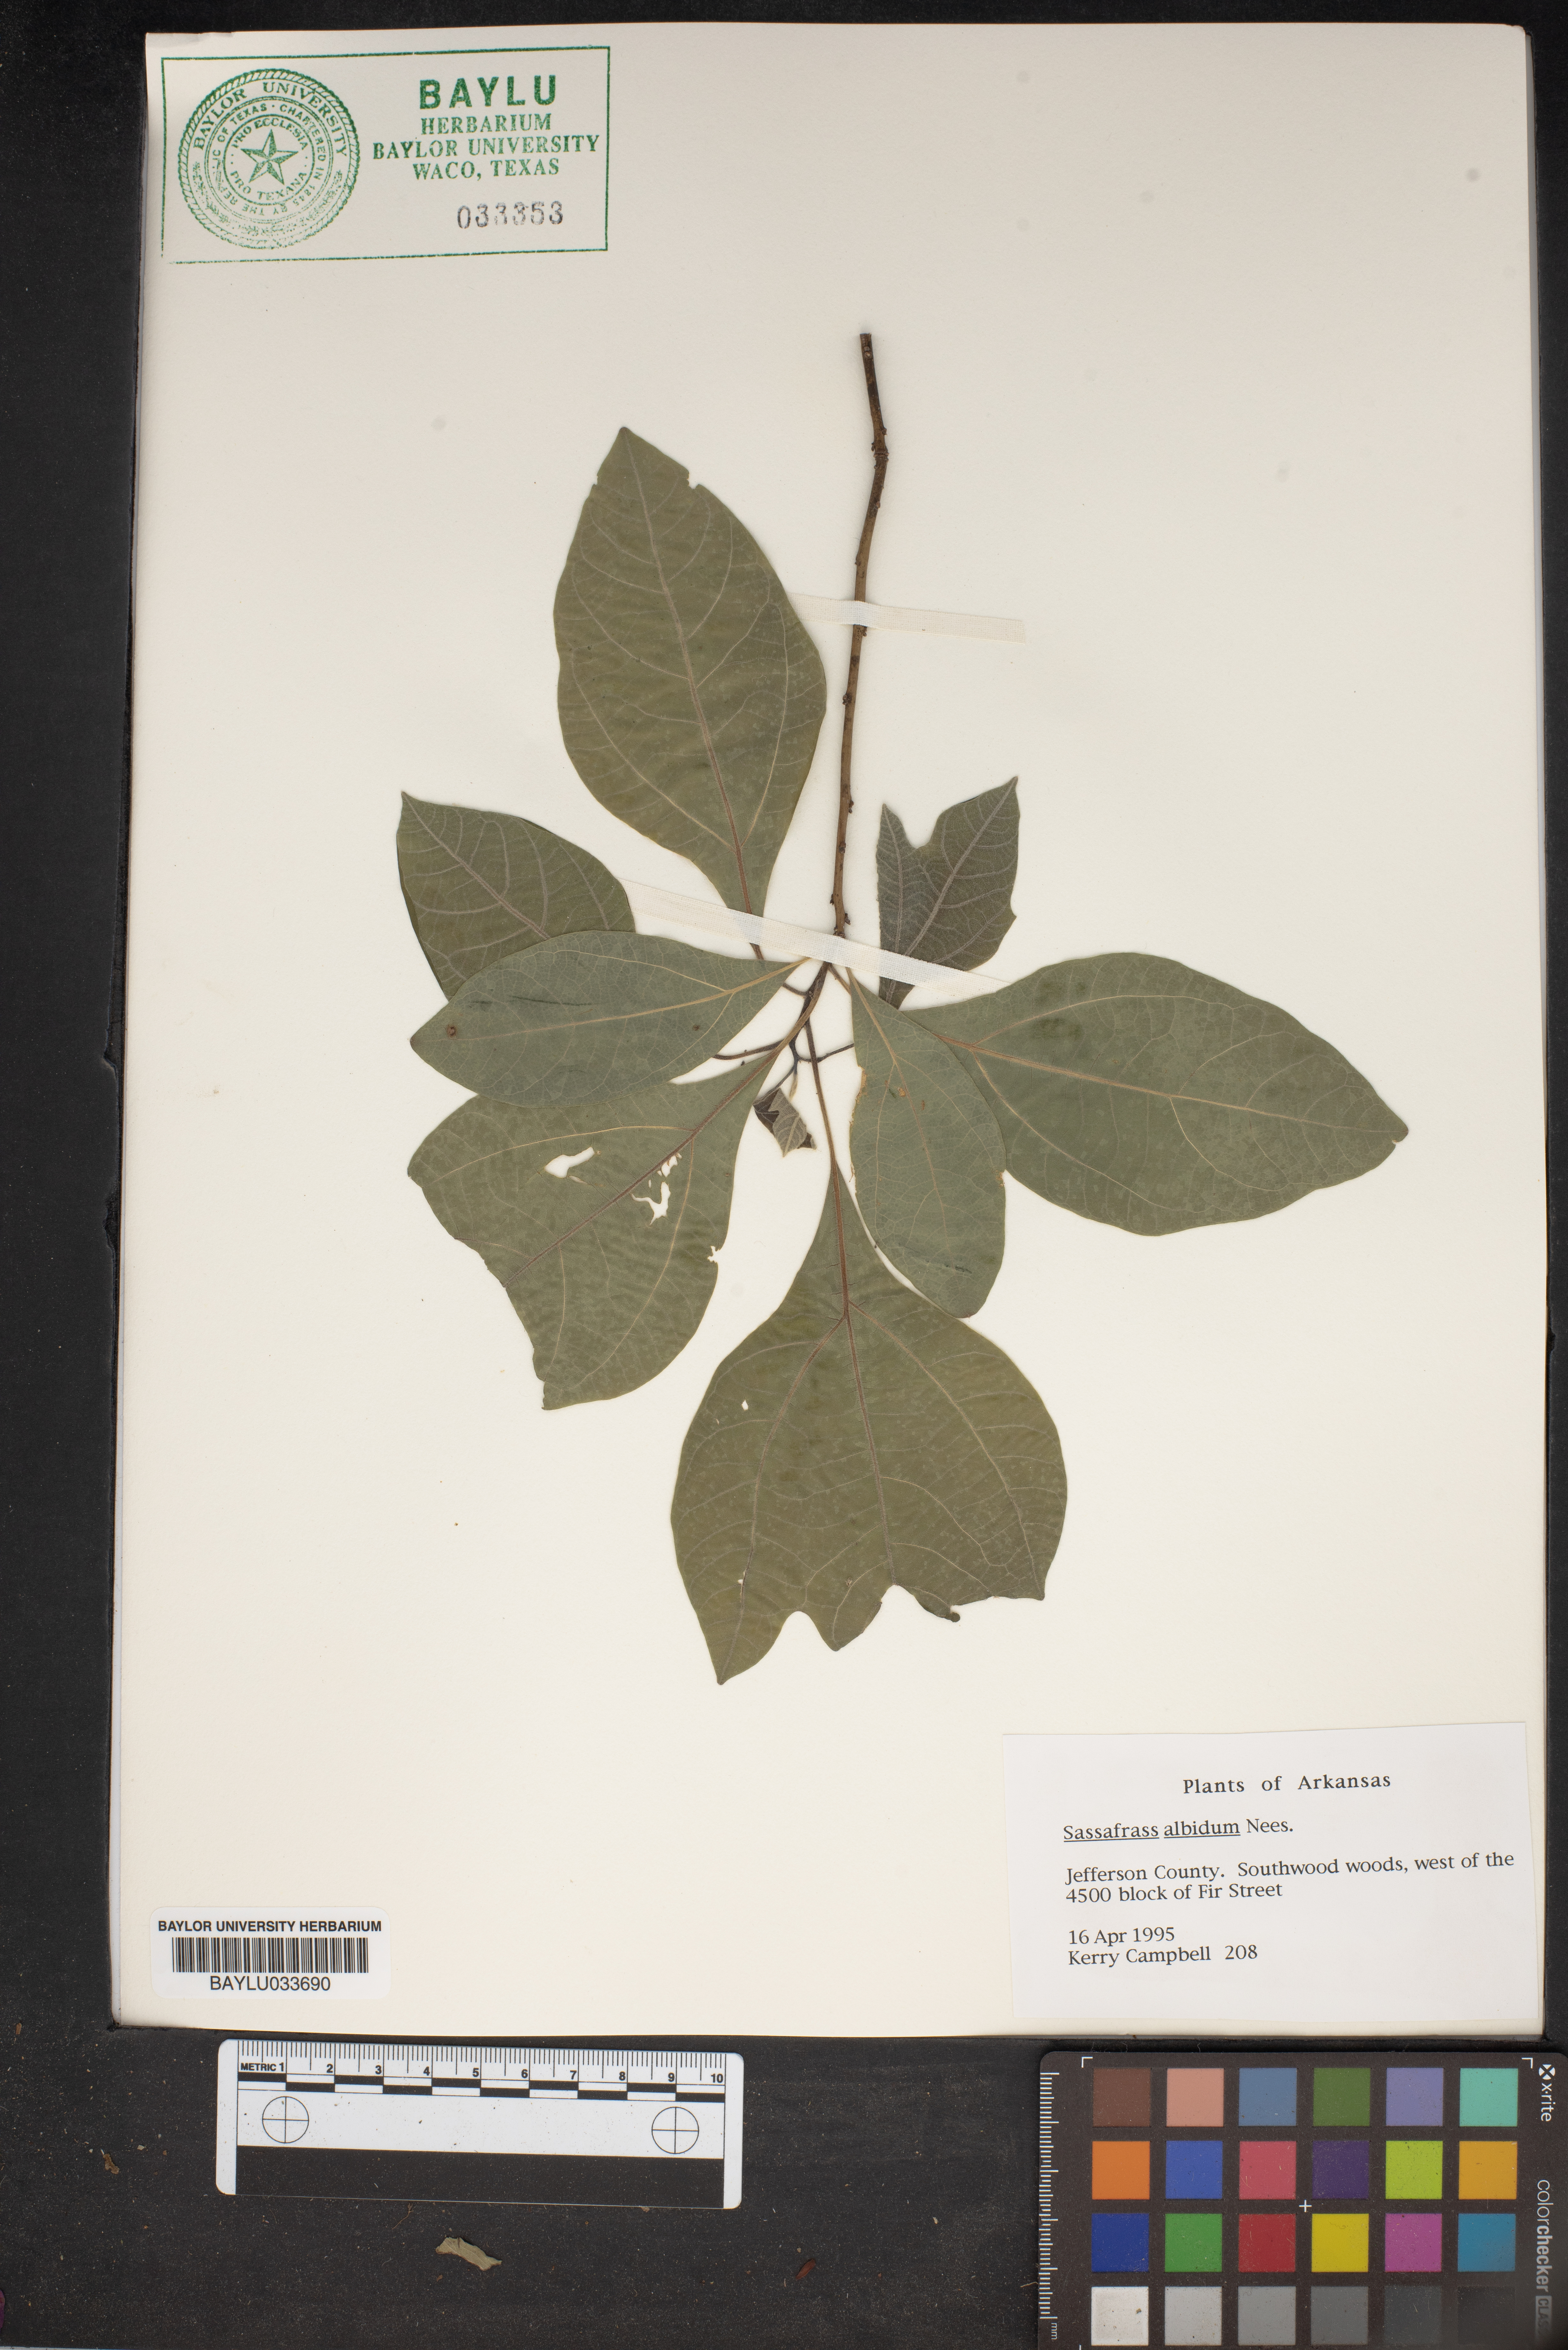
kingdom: Plantae
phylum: Tracheophyta
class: Magnoliopsida
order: Laurales
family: Lauraceae
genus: Sassafras
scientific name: Sassafras albidum
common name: Sassafras
